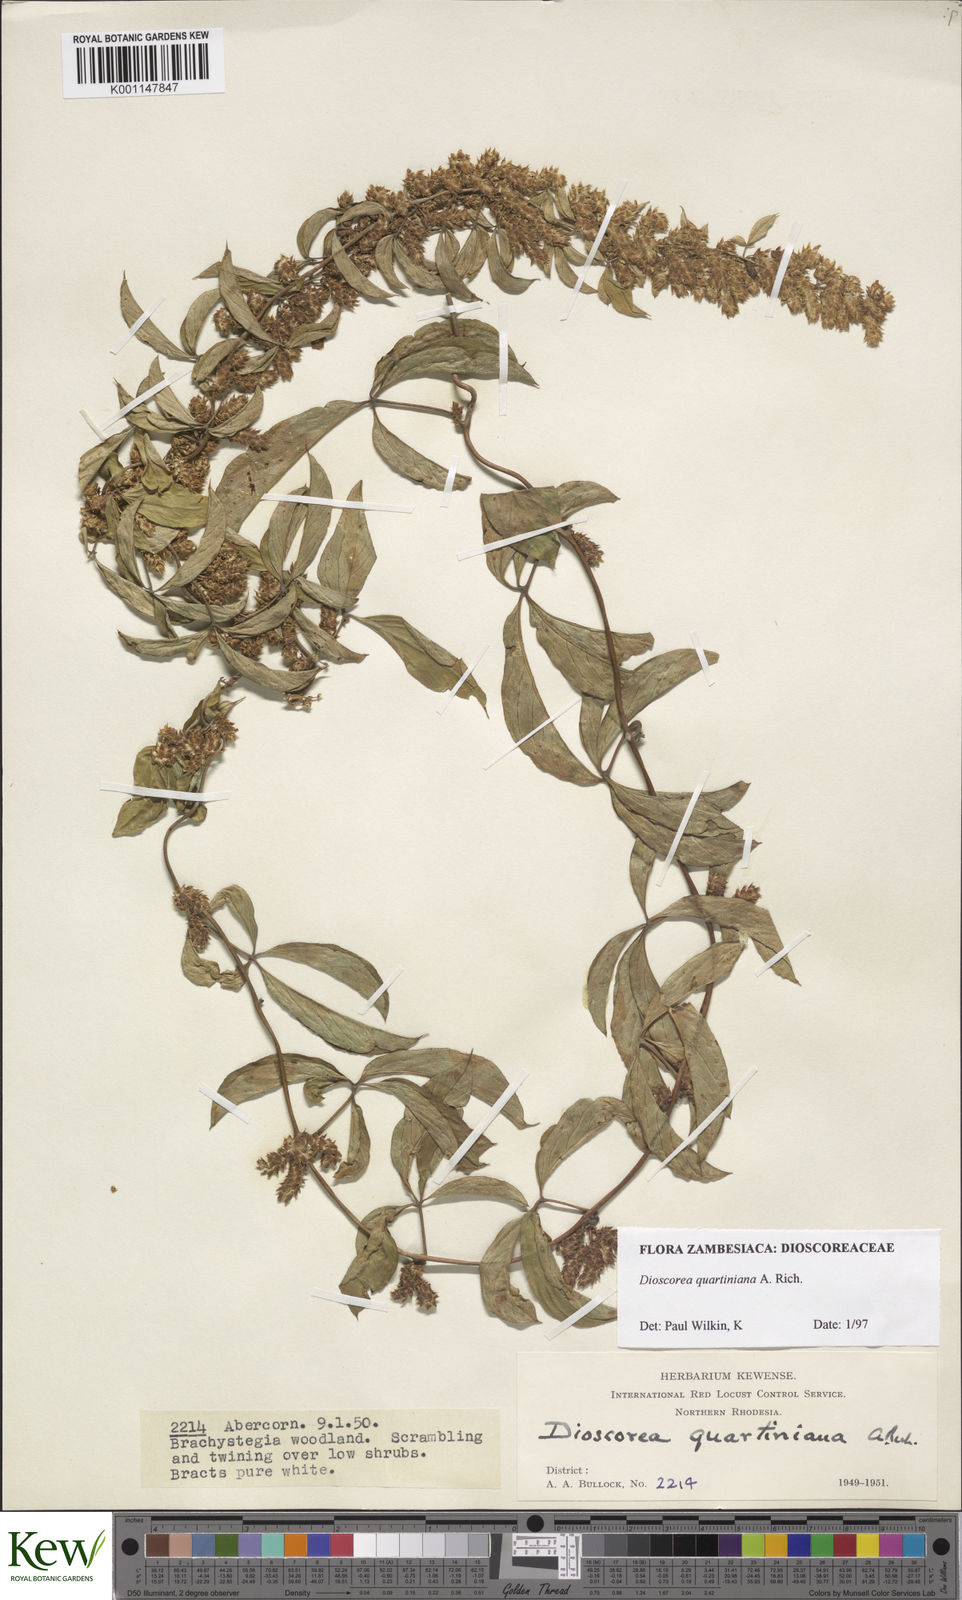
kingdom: Plantae
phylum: Tracheophyta
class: Liliopsida
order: Dioscoreales
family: Dioscoreaceae
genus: Dioscorea
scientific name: Dioscorea quartiniana
